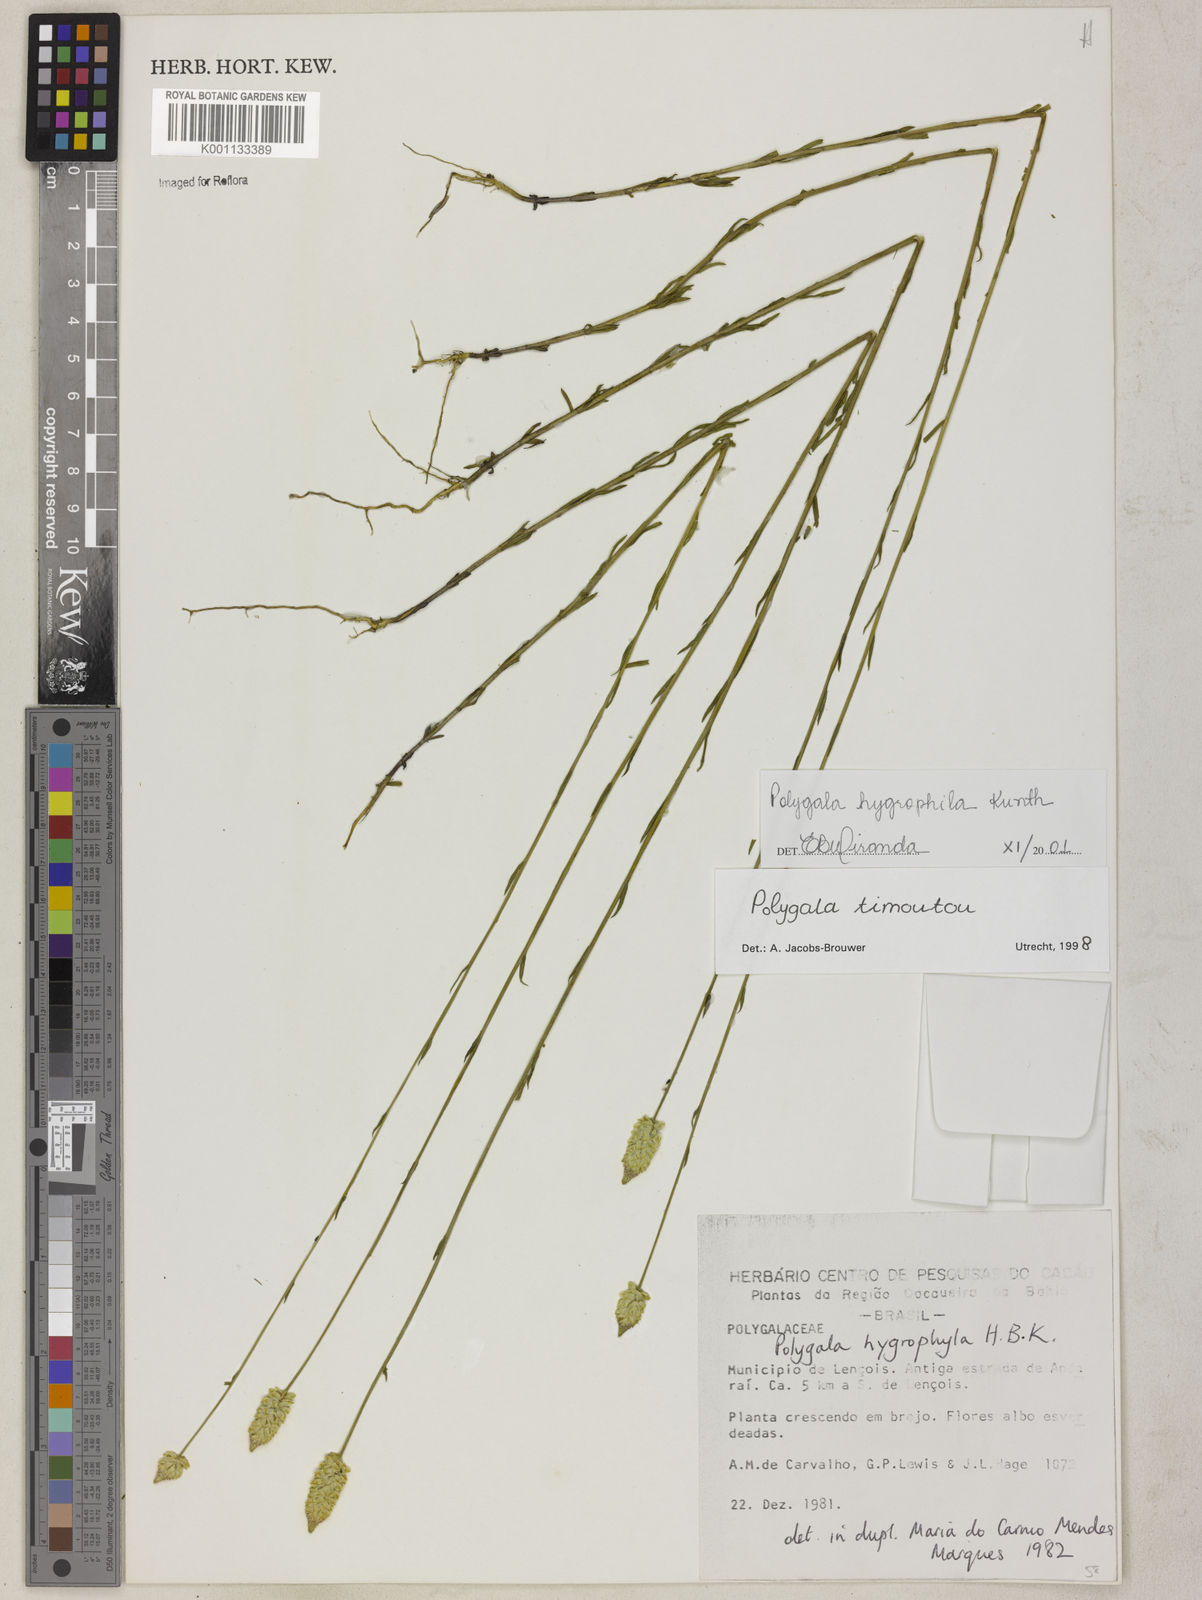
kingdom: Plantae
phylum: Tracheophyta
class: Magnoliopsida
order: Fabales
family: Polygalaceae
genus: Polygala
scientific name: Polygala hygrophila
